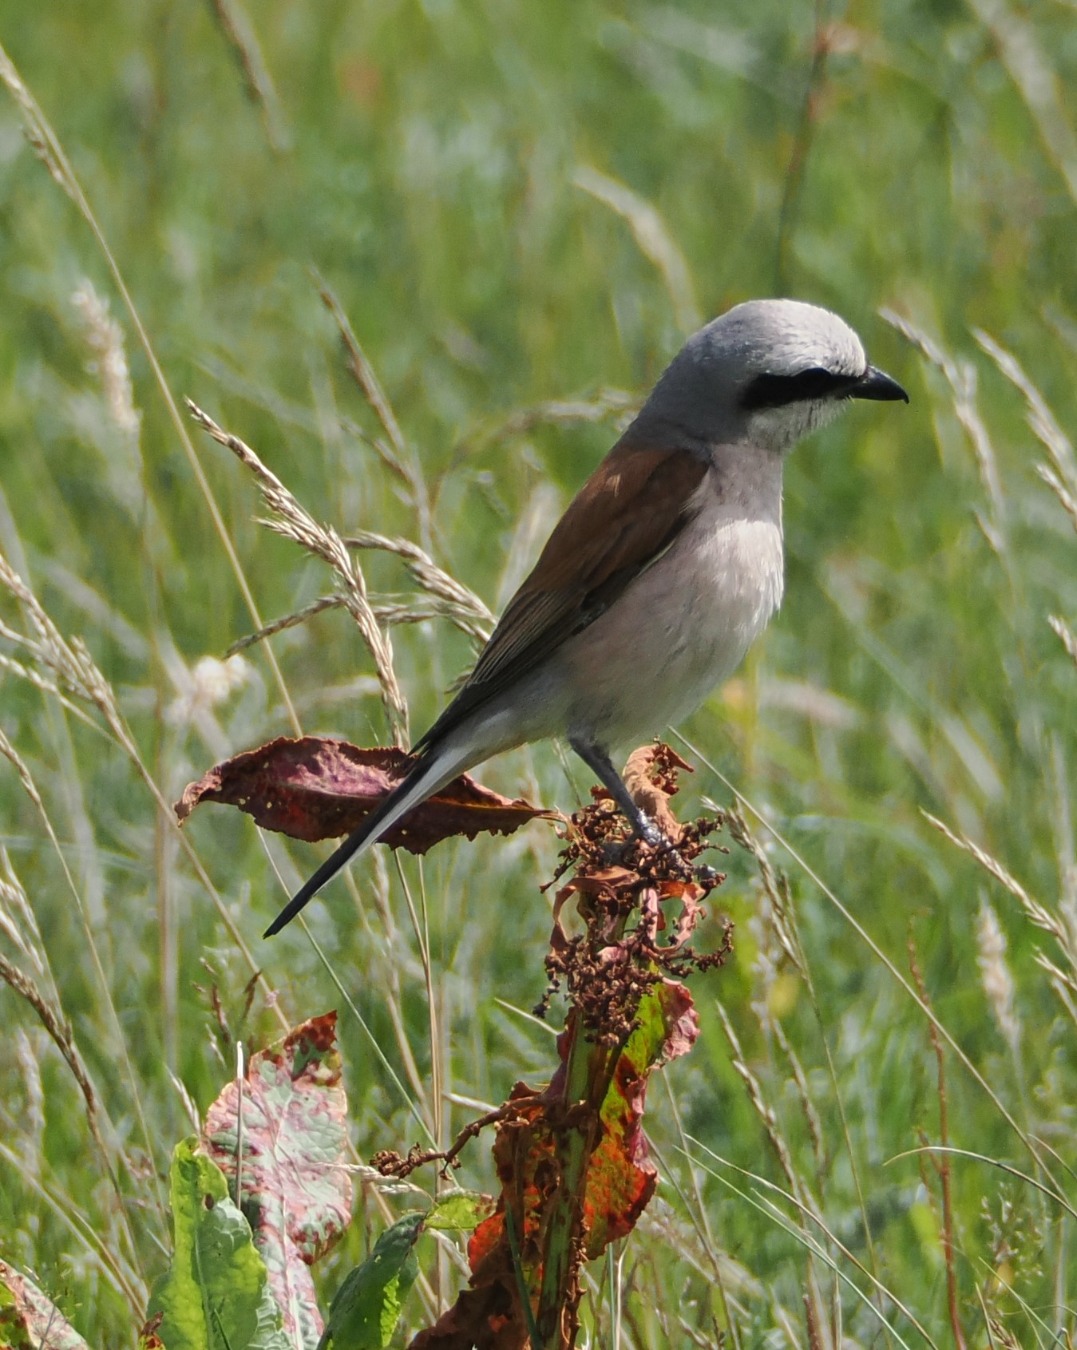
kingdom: Animalia
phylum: Chordata
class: Aves
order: Passeriformes
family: Laniidae
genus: Lanius
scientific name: Lanius collurio
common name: Rødrygget tornskade
